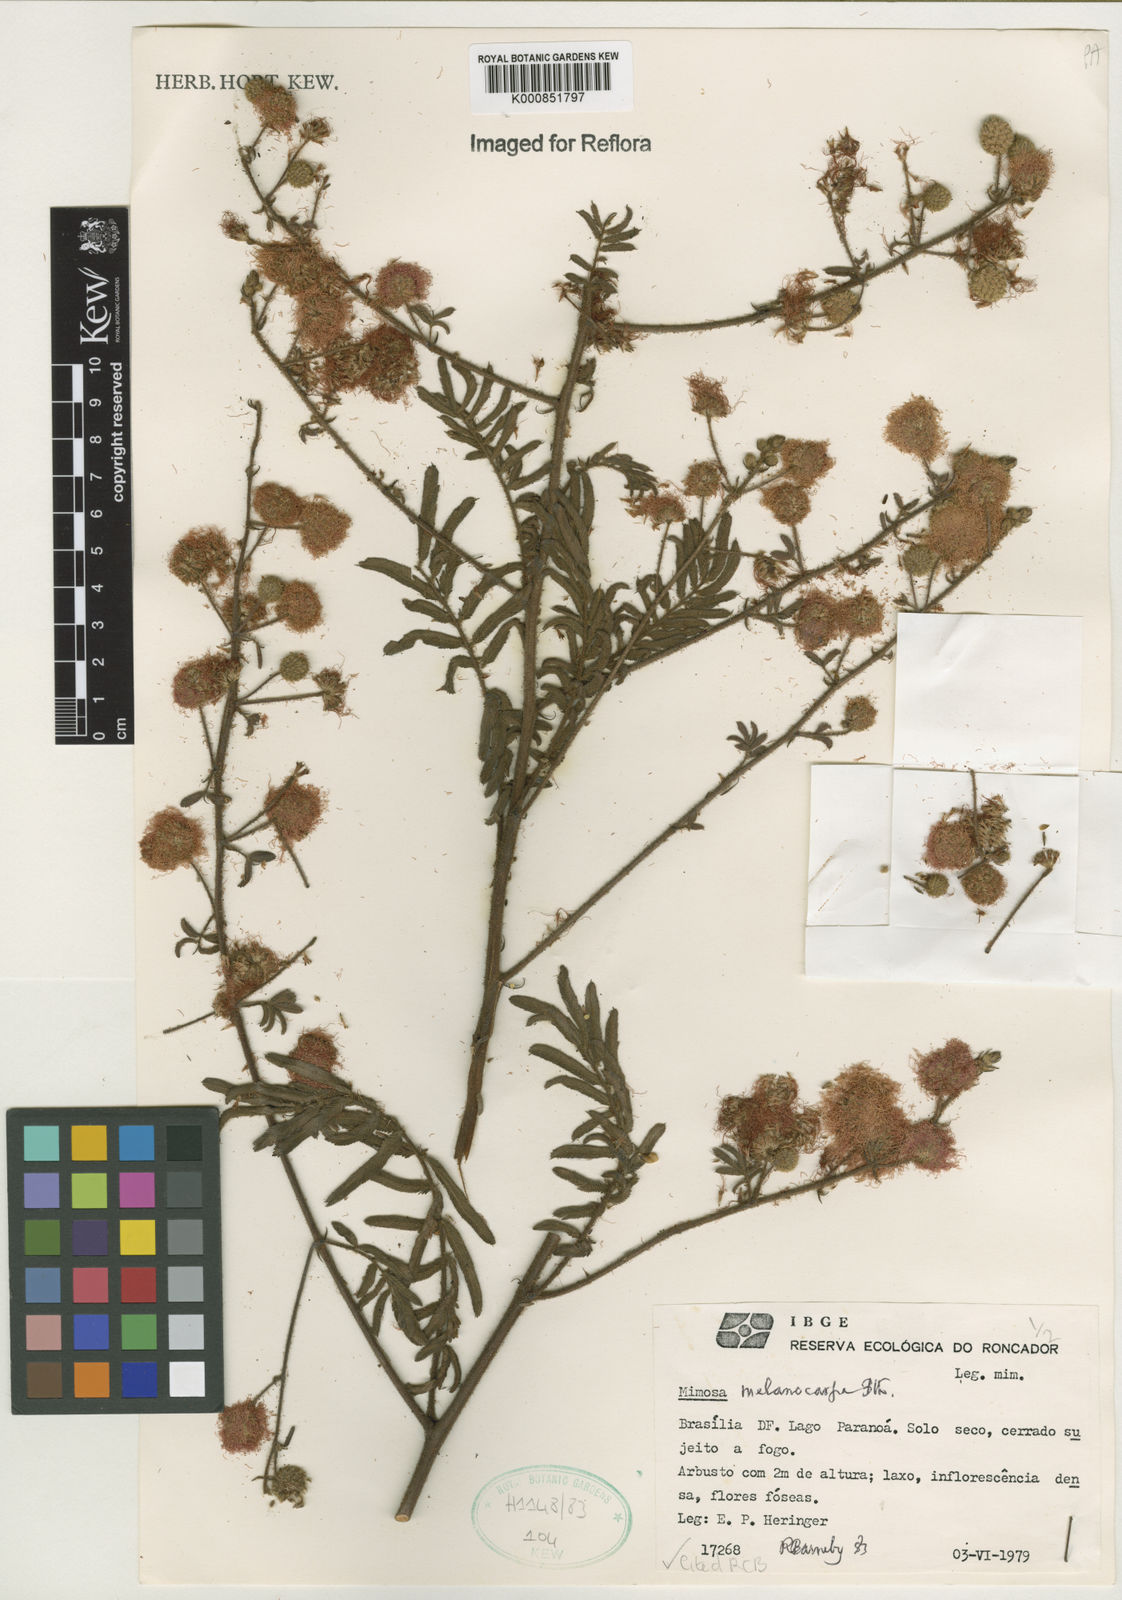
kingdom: Plantae
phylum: Tracheophyta
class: Magnoliopsida
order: Fabales
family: Fabaceae
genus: Mimosa
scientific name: Mimosa melanocarpa
